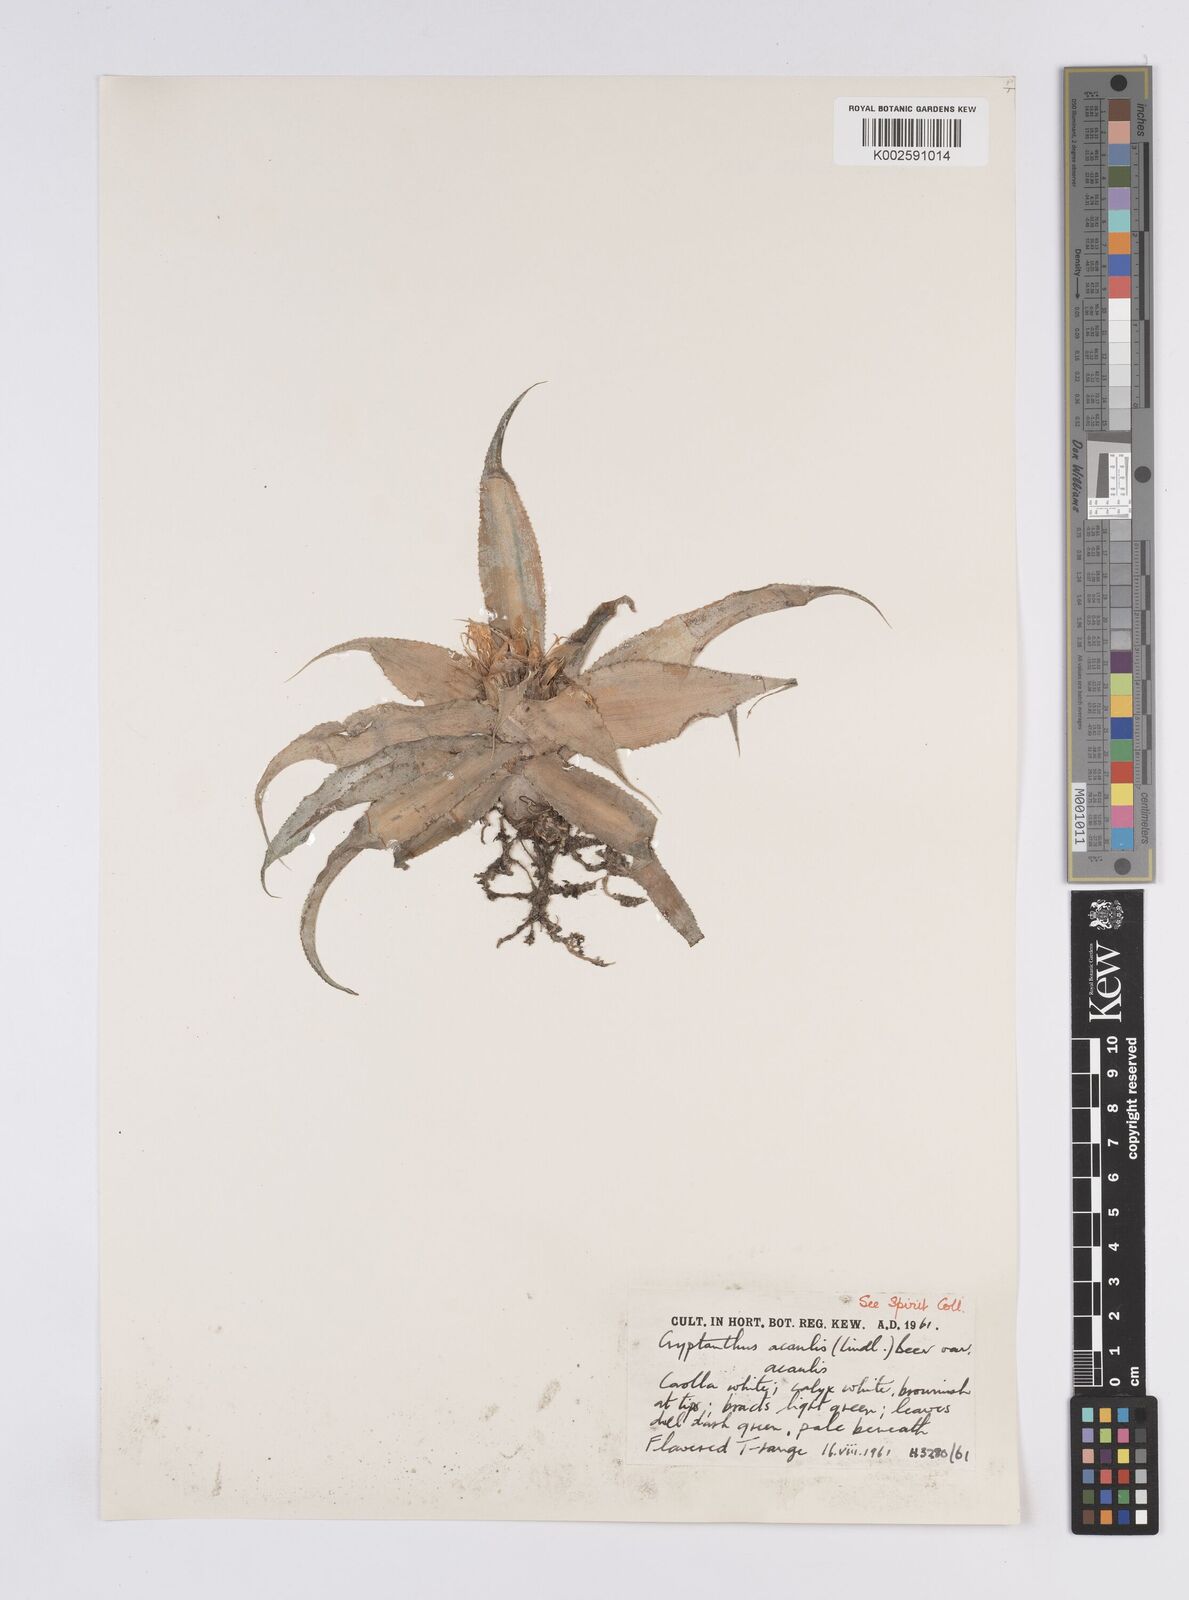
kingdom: Plantae
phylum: Tracheophyta
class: Liliopsida
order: Poales
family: Bromeliaceae
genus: Cryptanthus
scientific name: Cryptanthus acaulis
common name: Starfishplant
